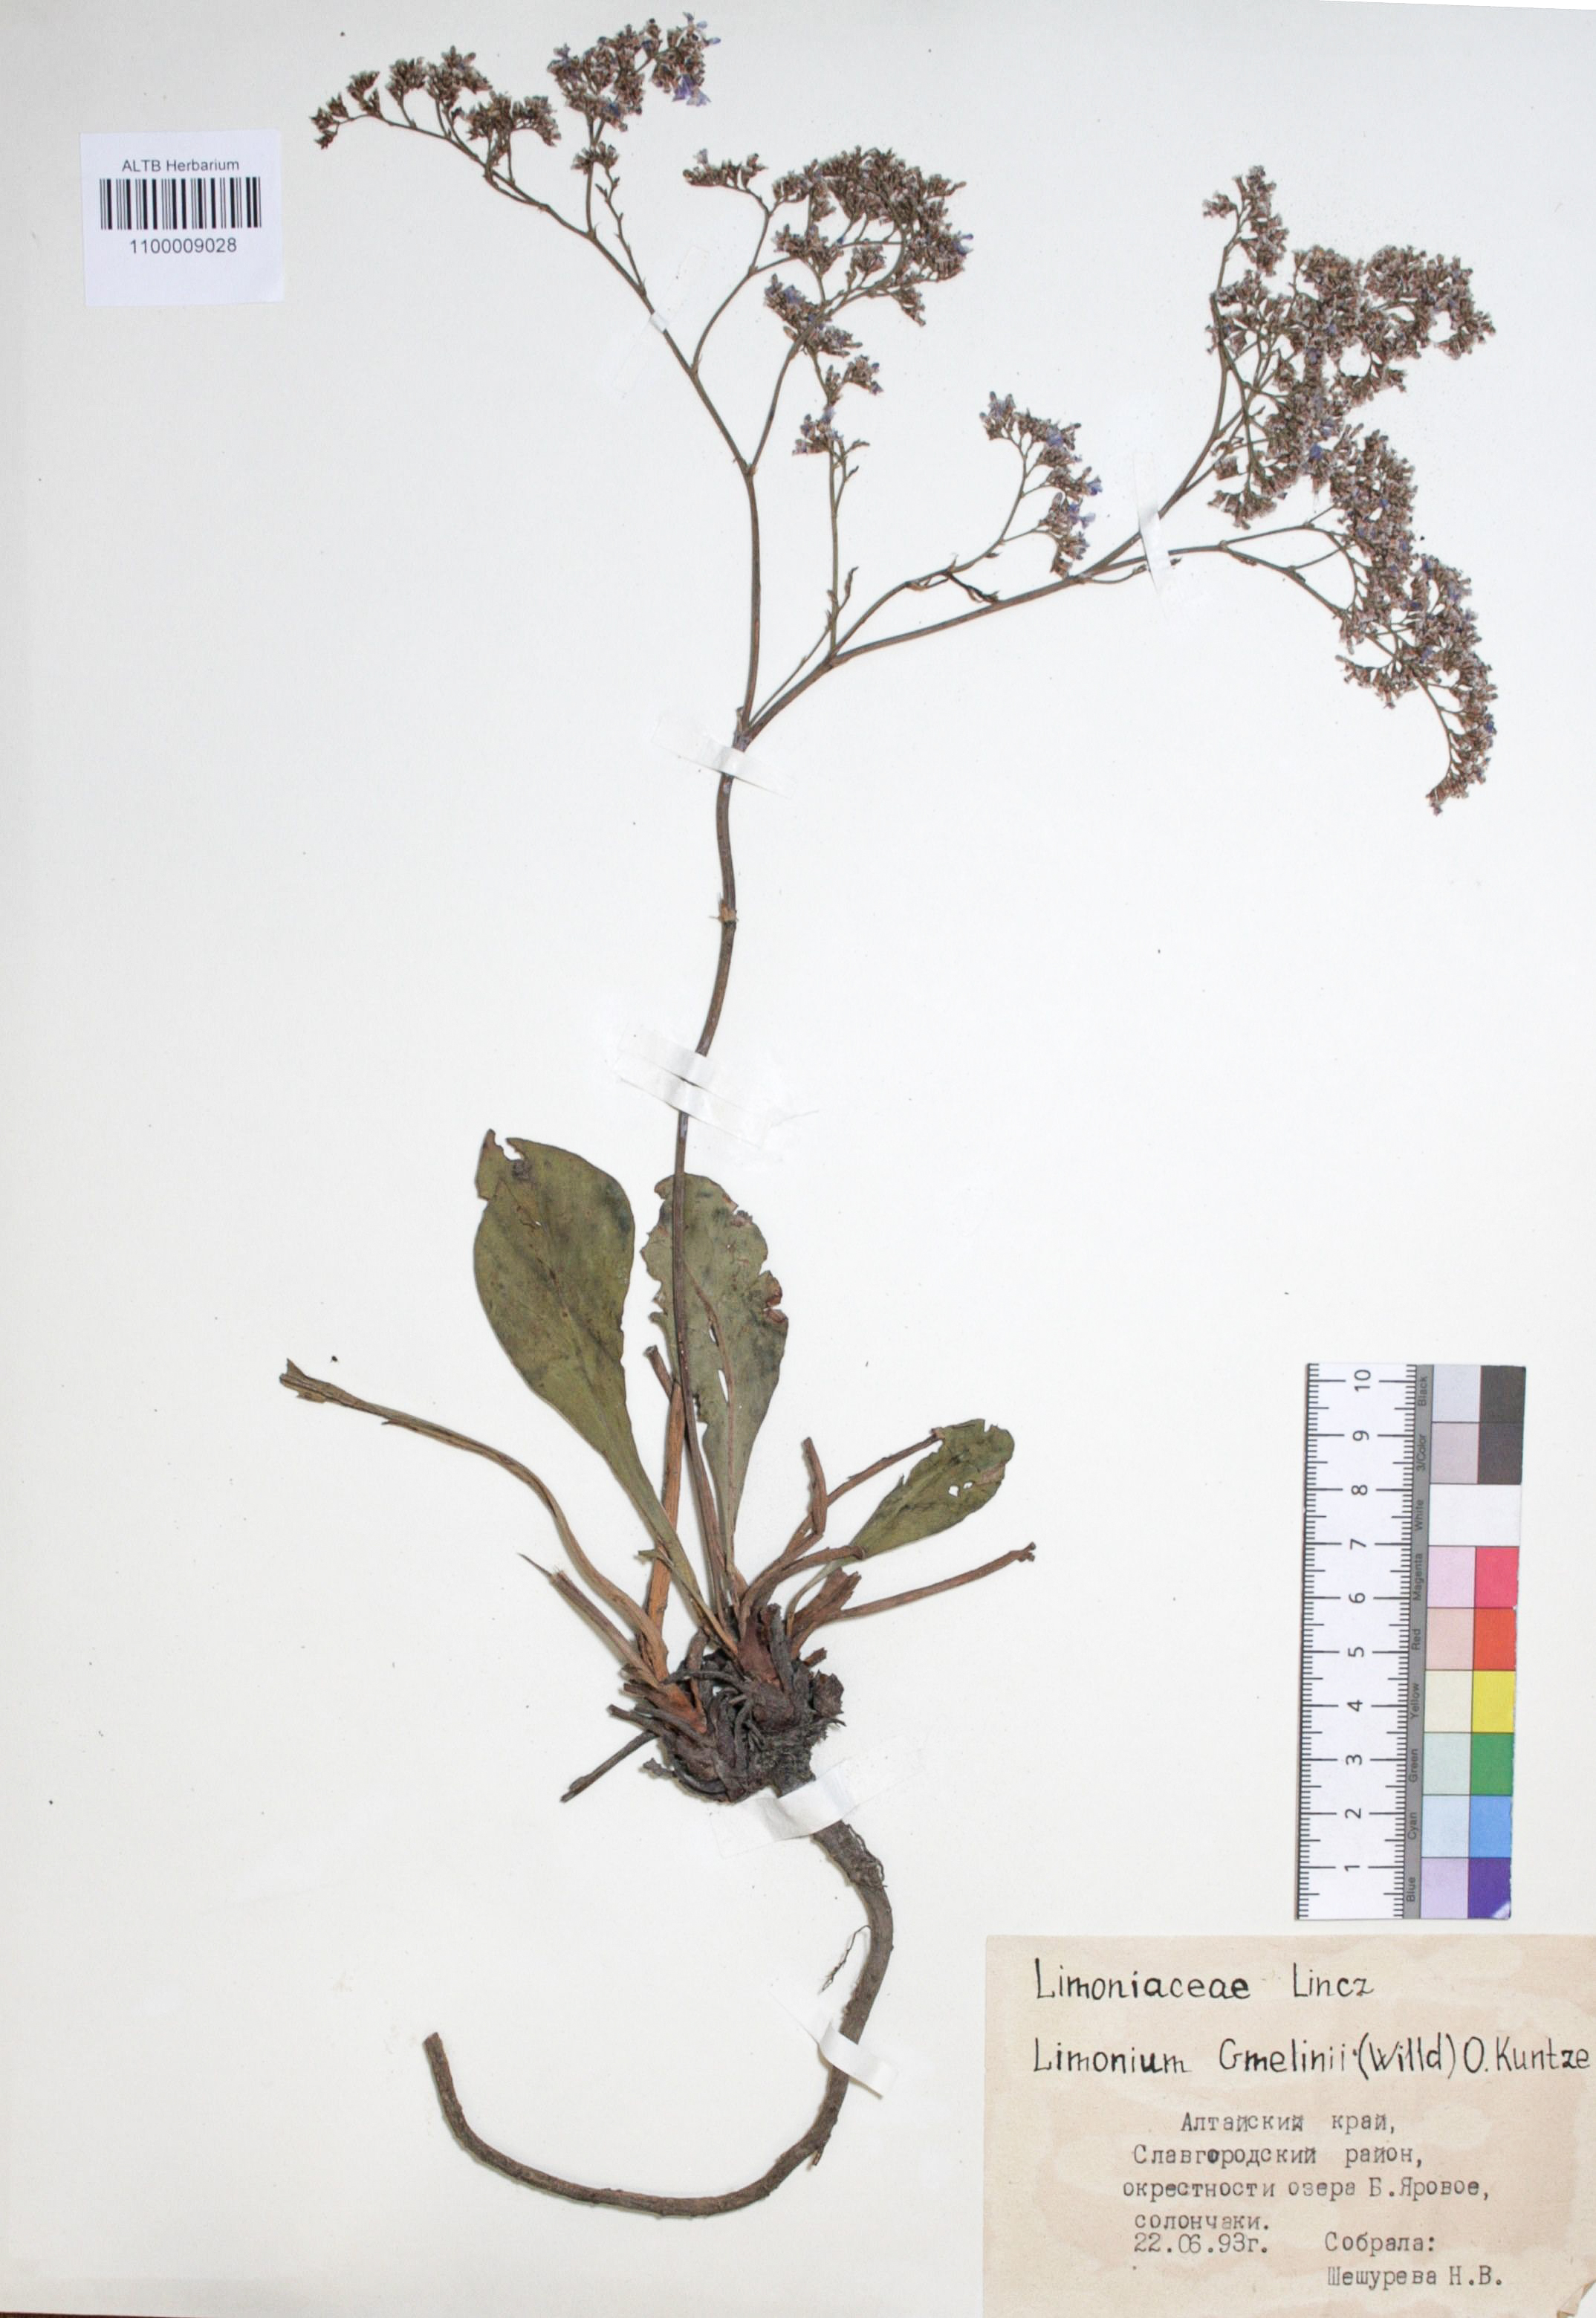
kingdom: Plantae
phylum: Tracheophyta
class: Magnoliopsida
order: Caryophyllales
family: Plumbaginaceae
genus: Limonium
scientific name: Limonium gmelini
